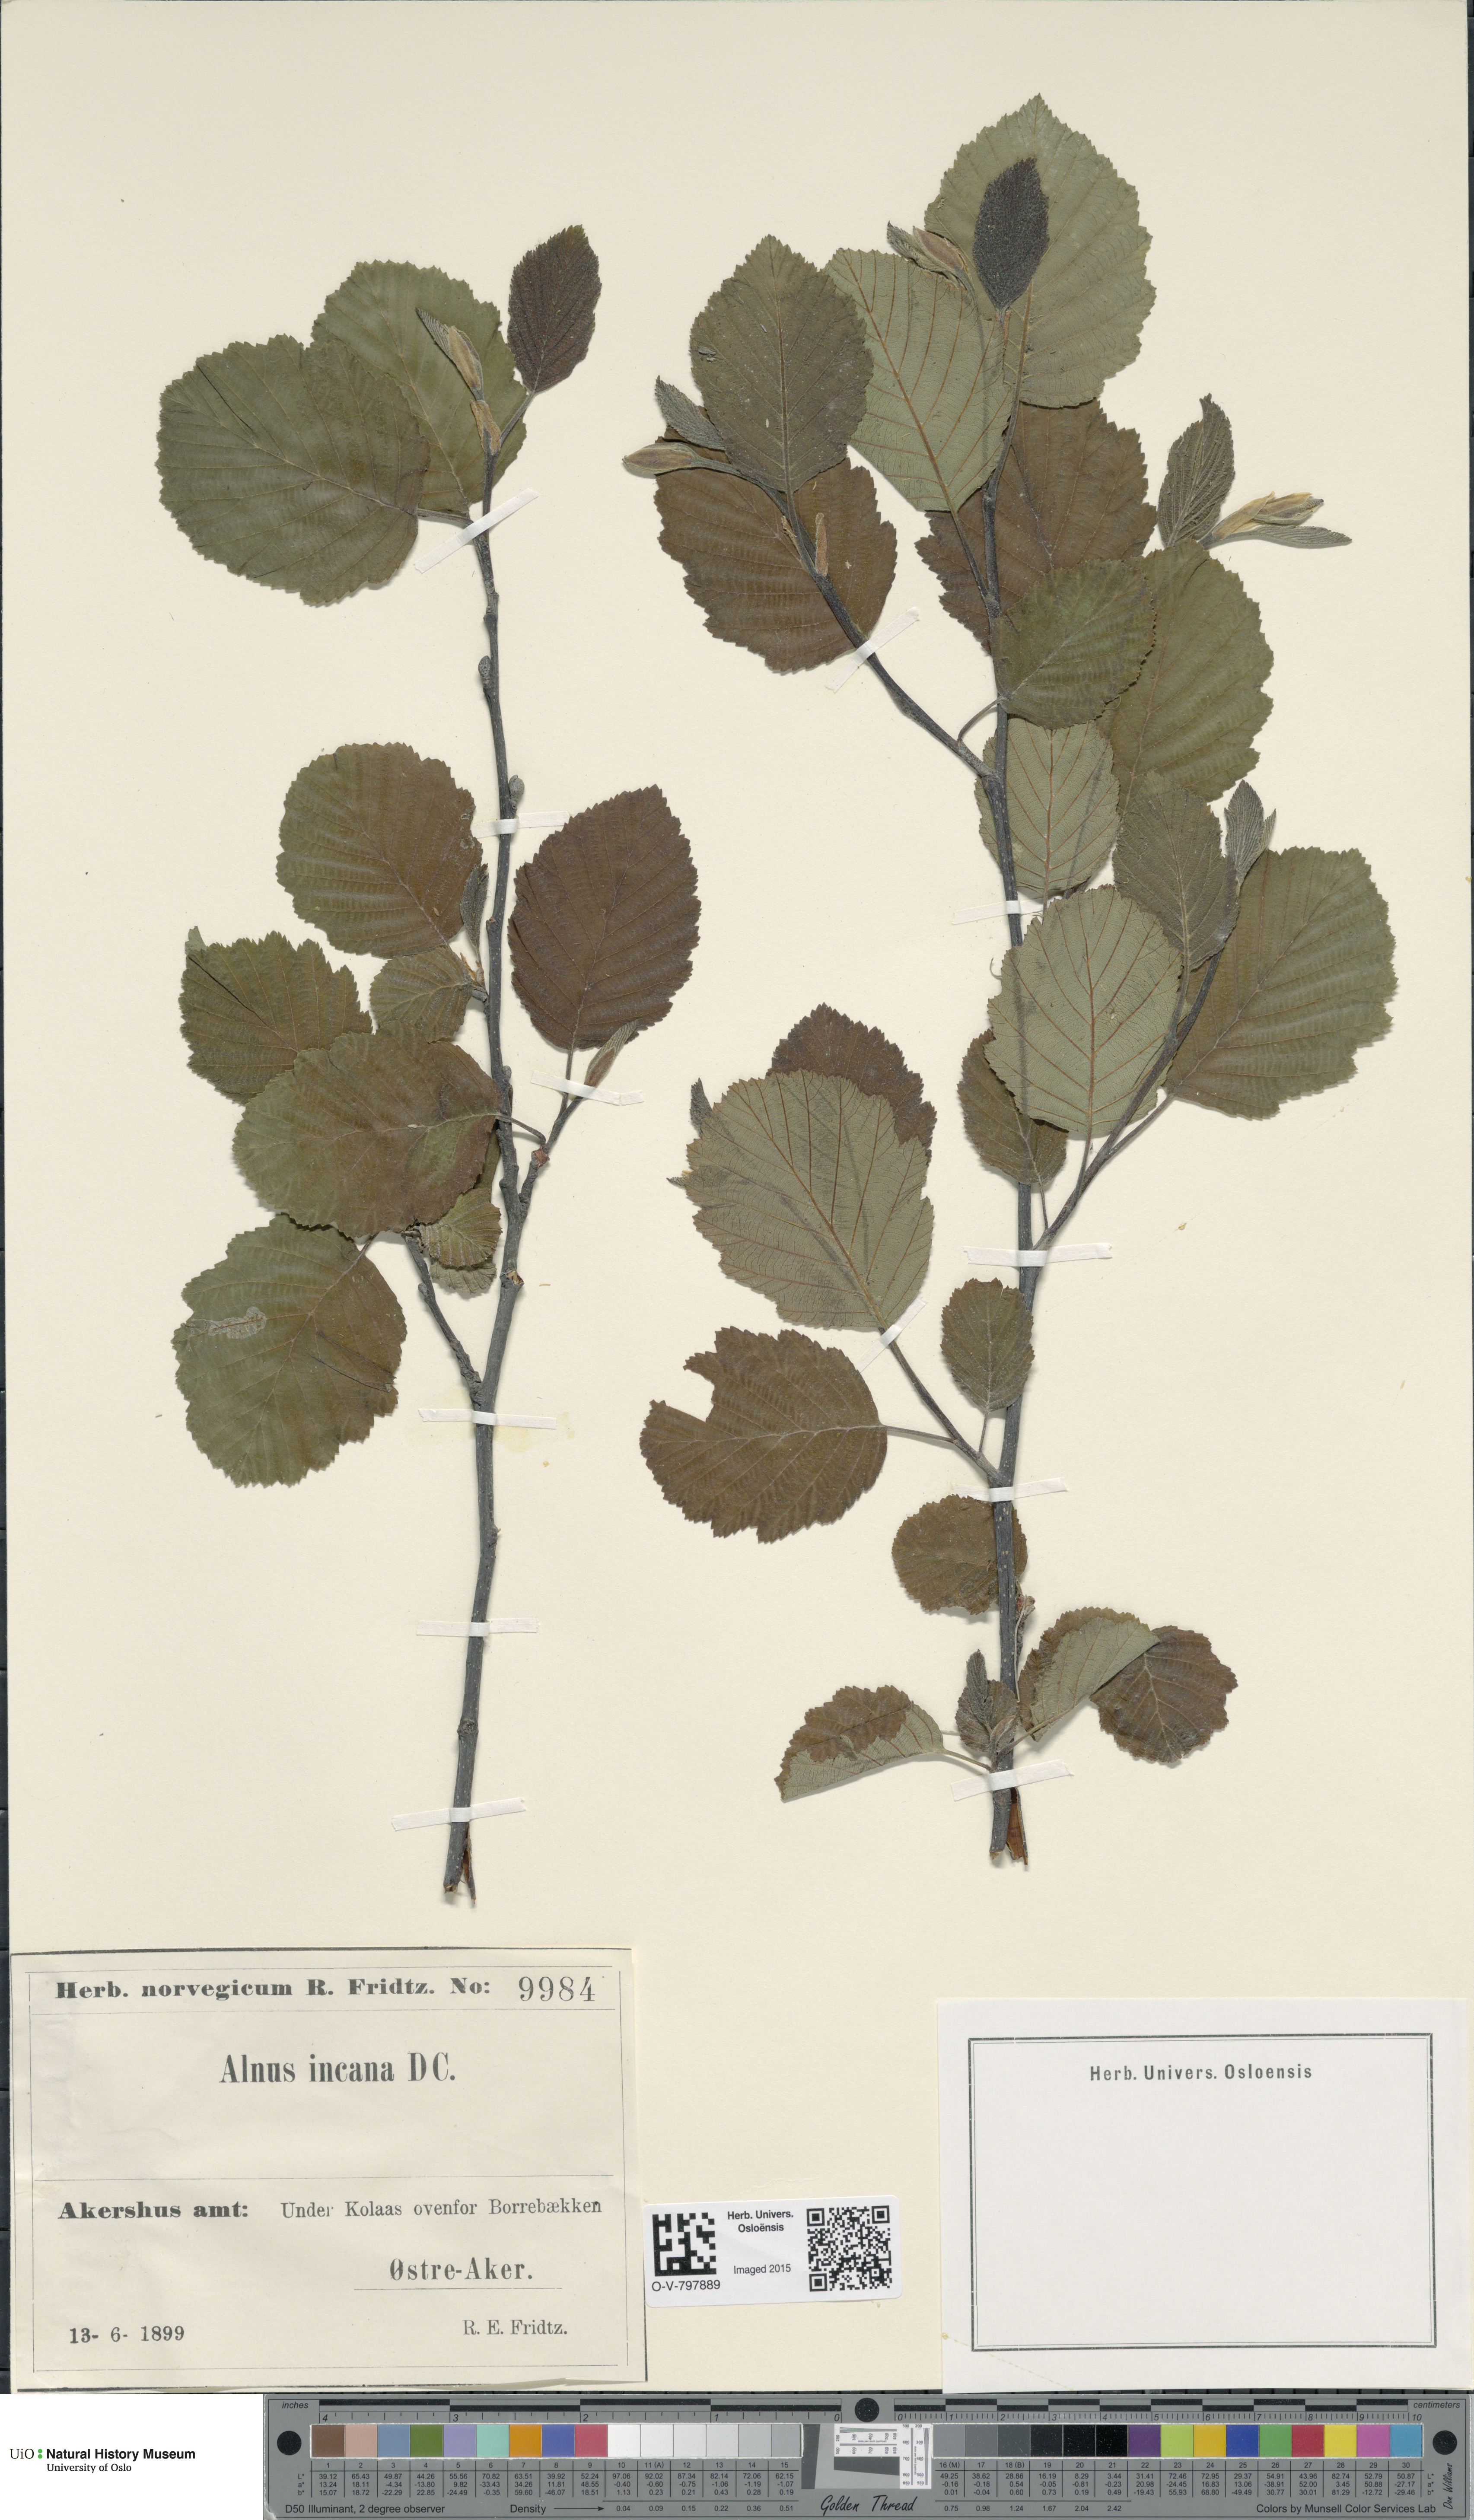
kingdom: Plantae
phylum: Tracheophyta
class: Magnoliopsida
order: Fagales
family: Betulaceae
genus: Alnus
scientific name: Alnus incana
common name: Grey alder
